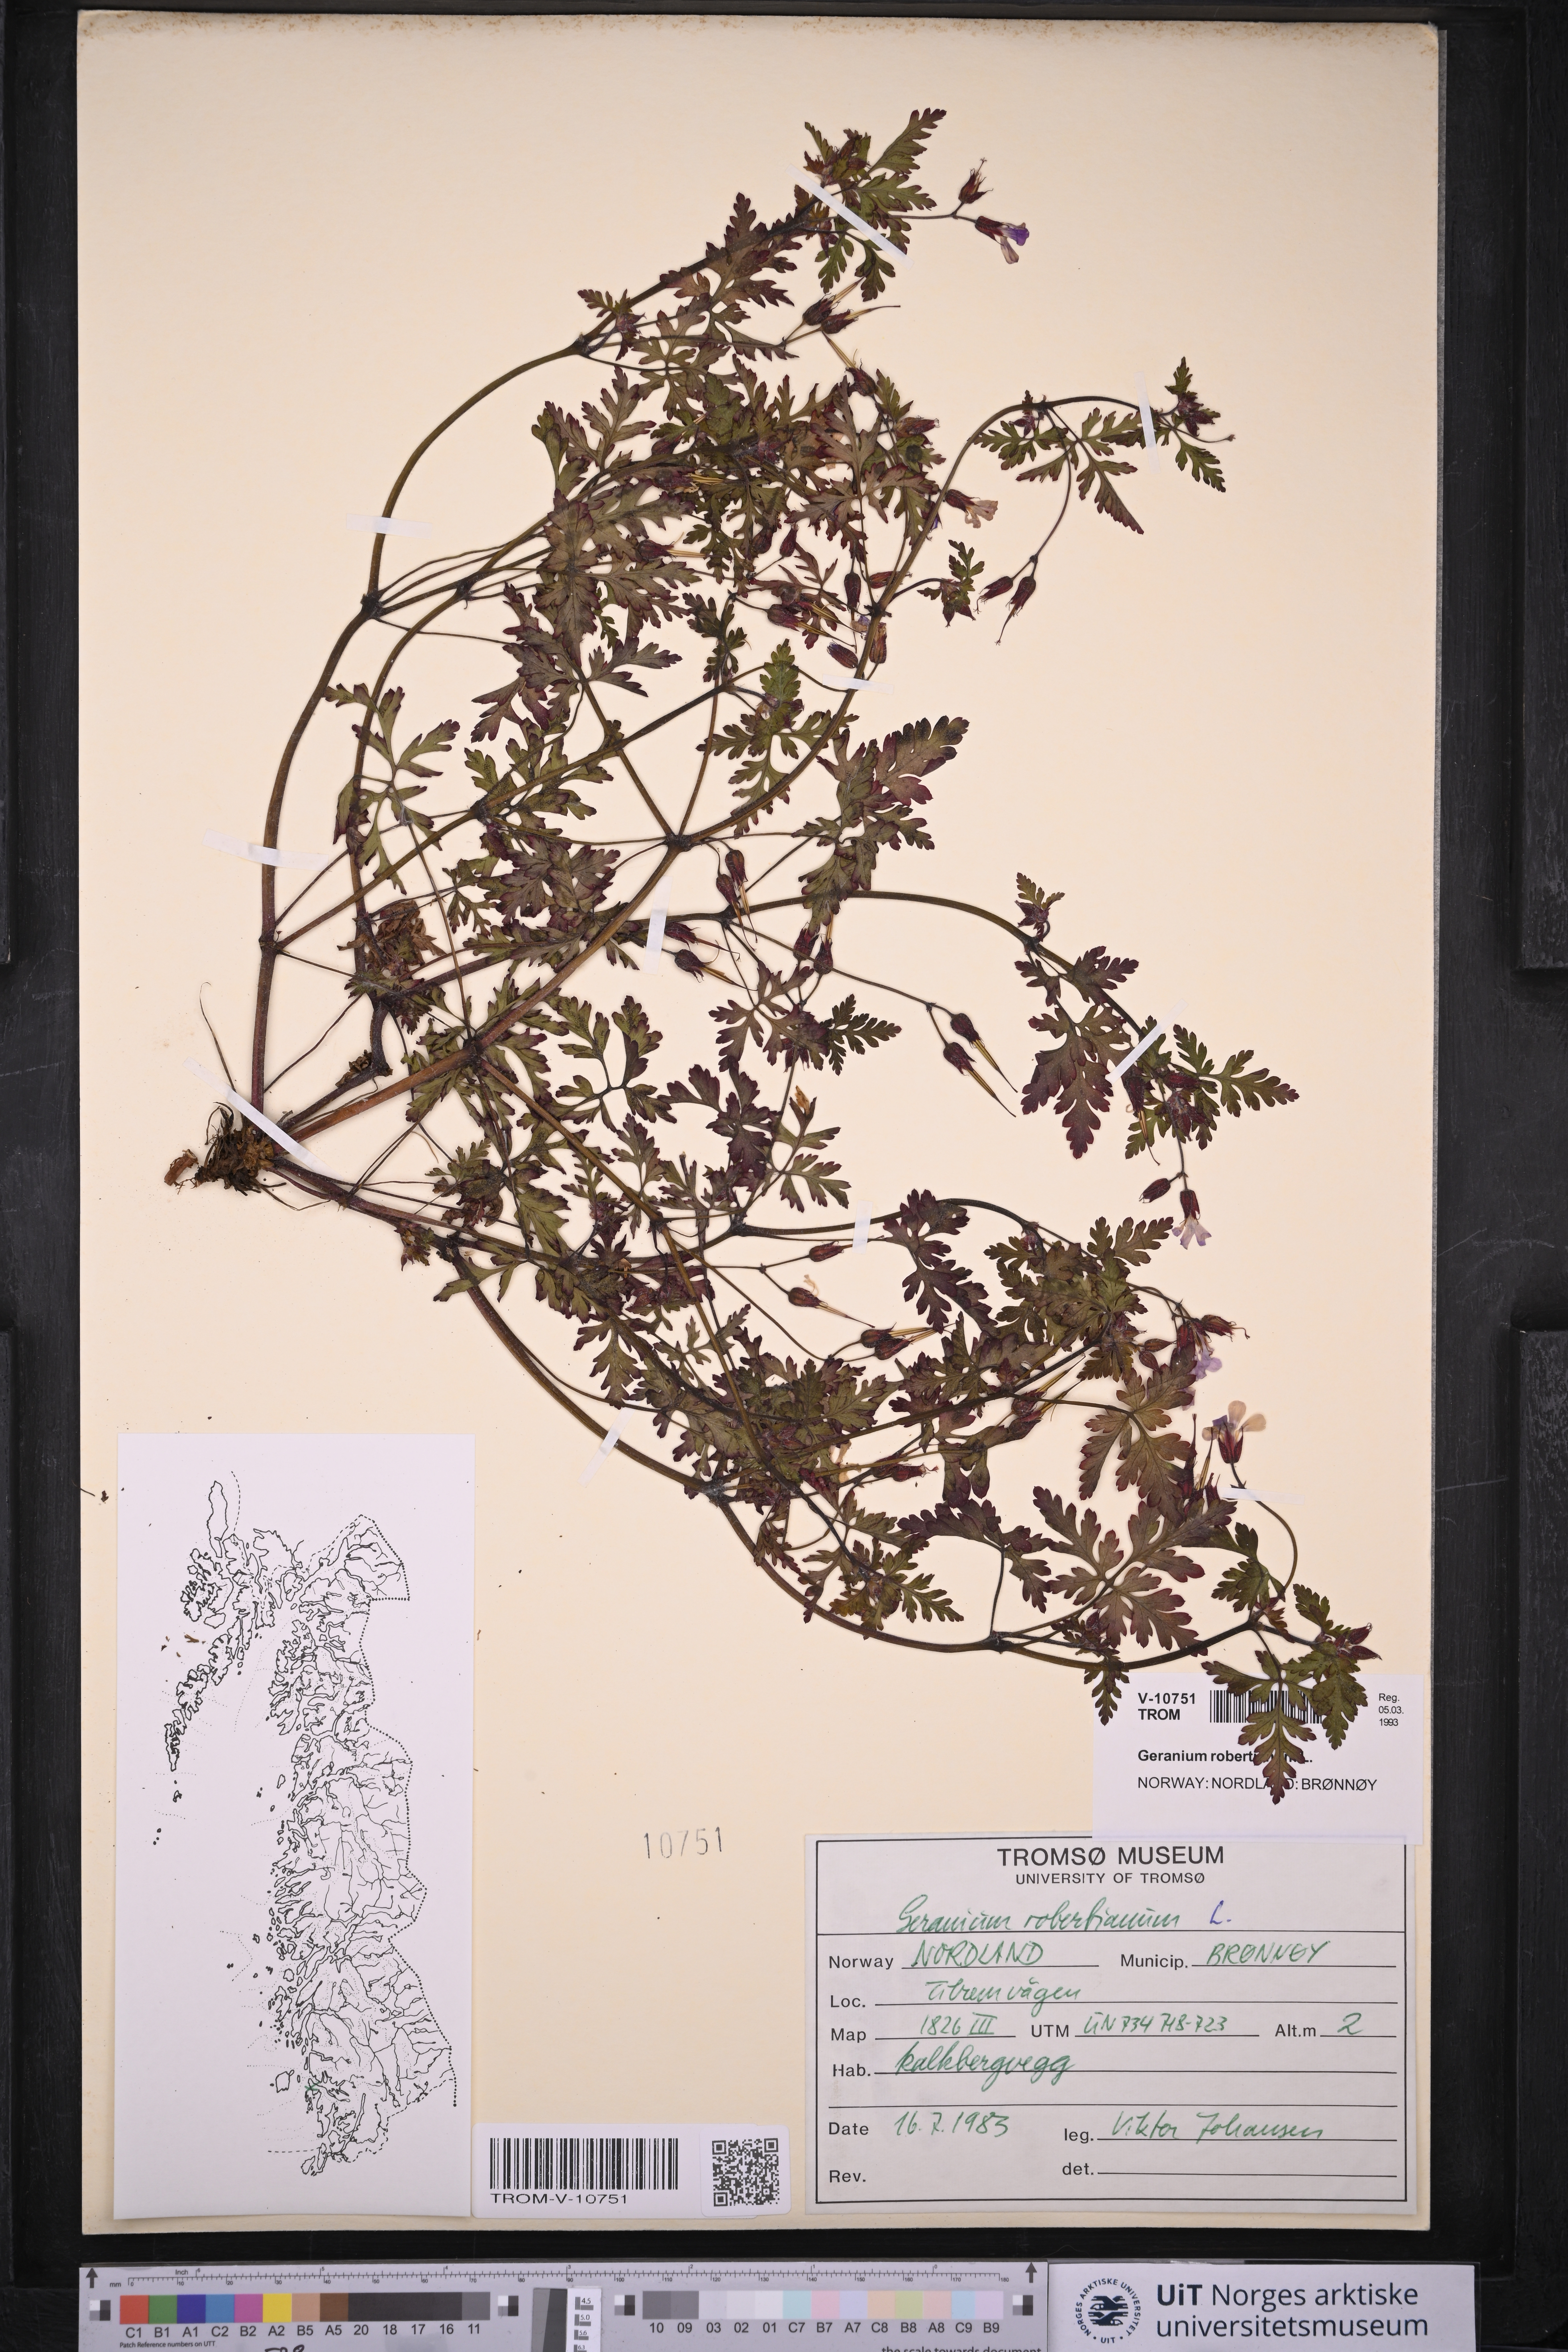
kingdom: Plantae
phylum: Tracheophyta
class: Magnoliopsida
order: Geraniales
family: Geraniaceae
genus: Geranium
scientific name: Geranium robertianum
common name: Herb-robert
